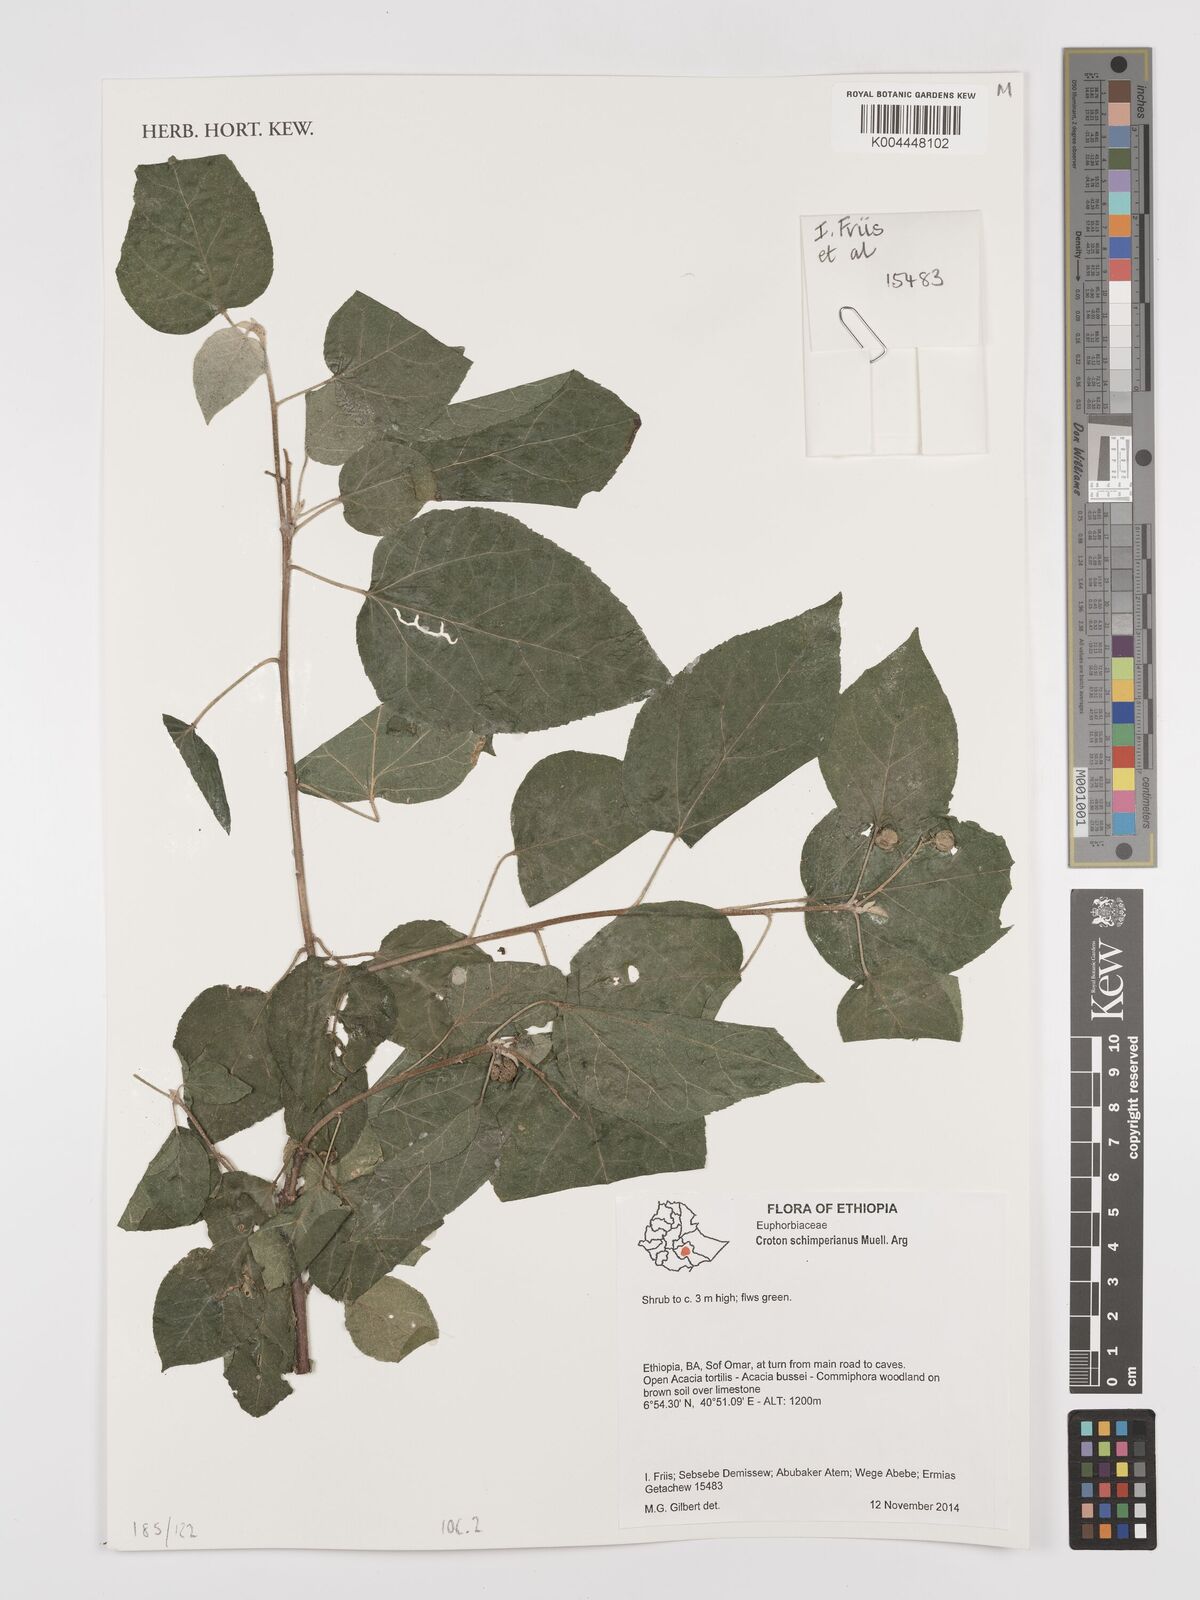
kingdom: Plantae
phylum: Tracheophyta
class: Magnoliopsida
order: Malpighiales
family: Euphorbiaceae
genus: Croton
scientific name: Croton schimperianus
